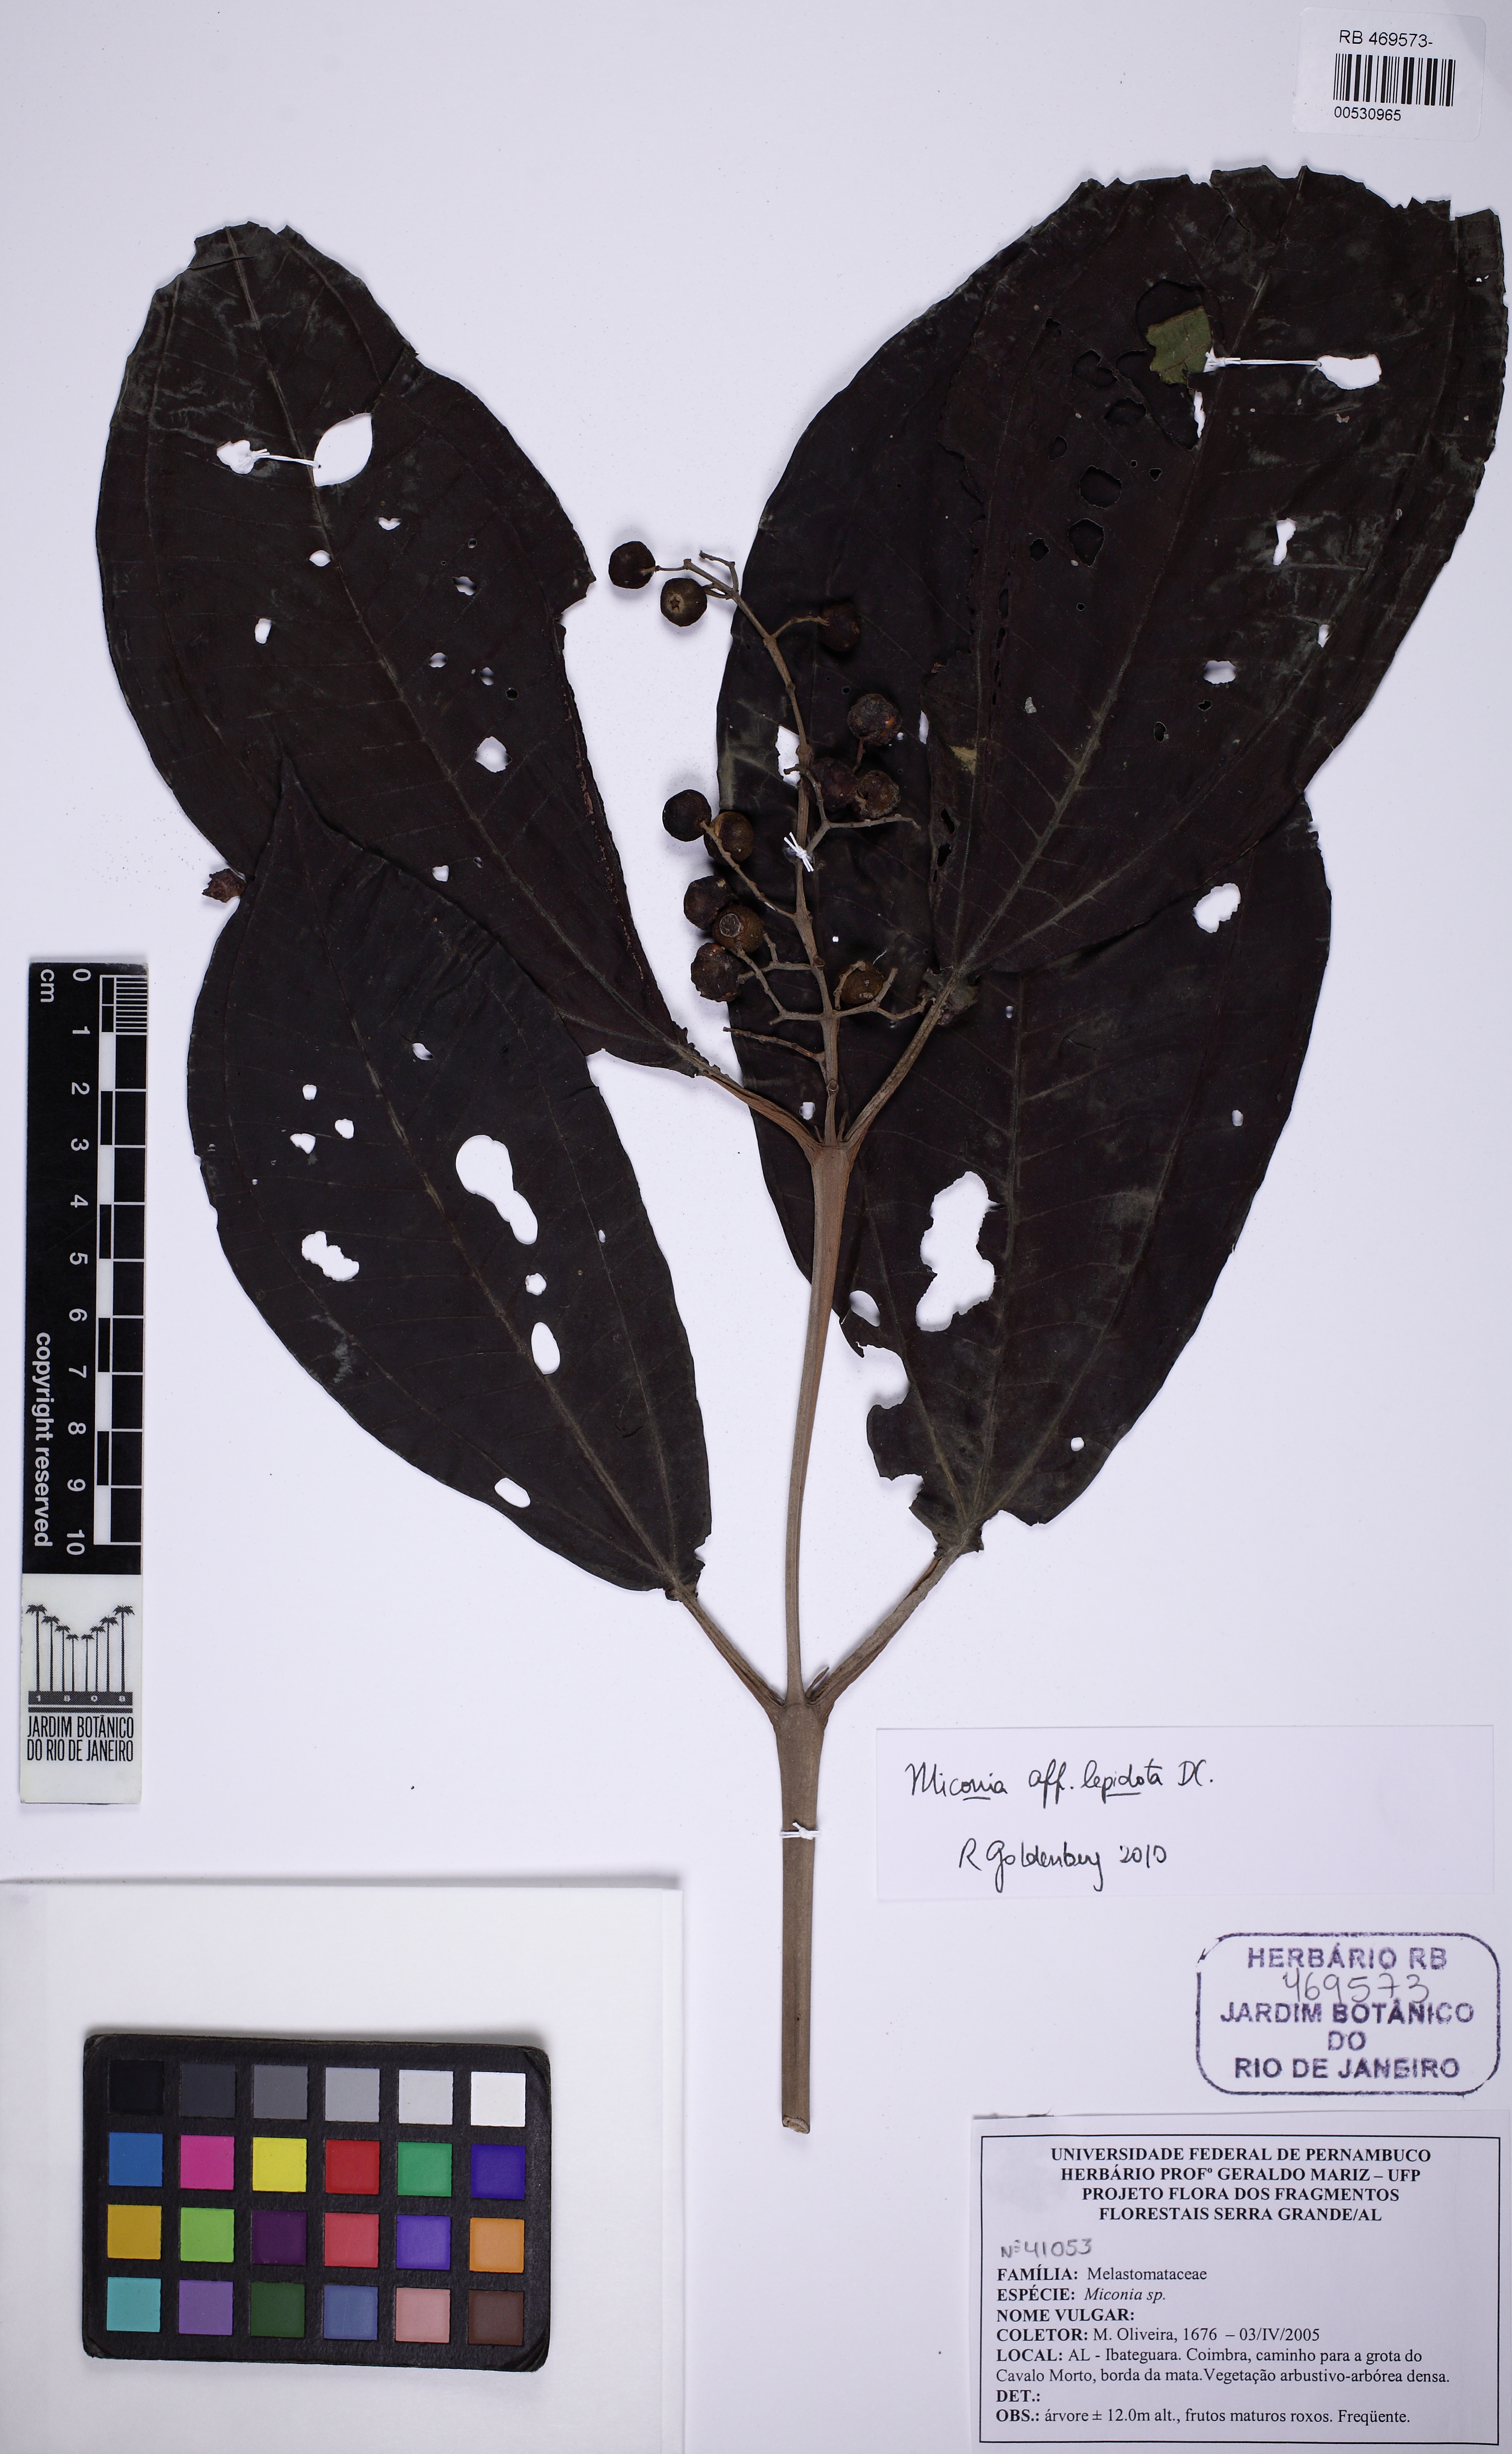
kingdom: Plantae
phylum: Tracheophyta
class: Magnoliopsida
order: Myrtales
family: Melastomataceae
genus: Miconia
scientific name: Miconia caiuia
